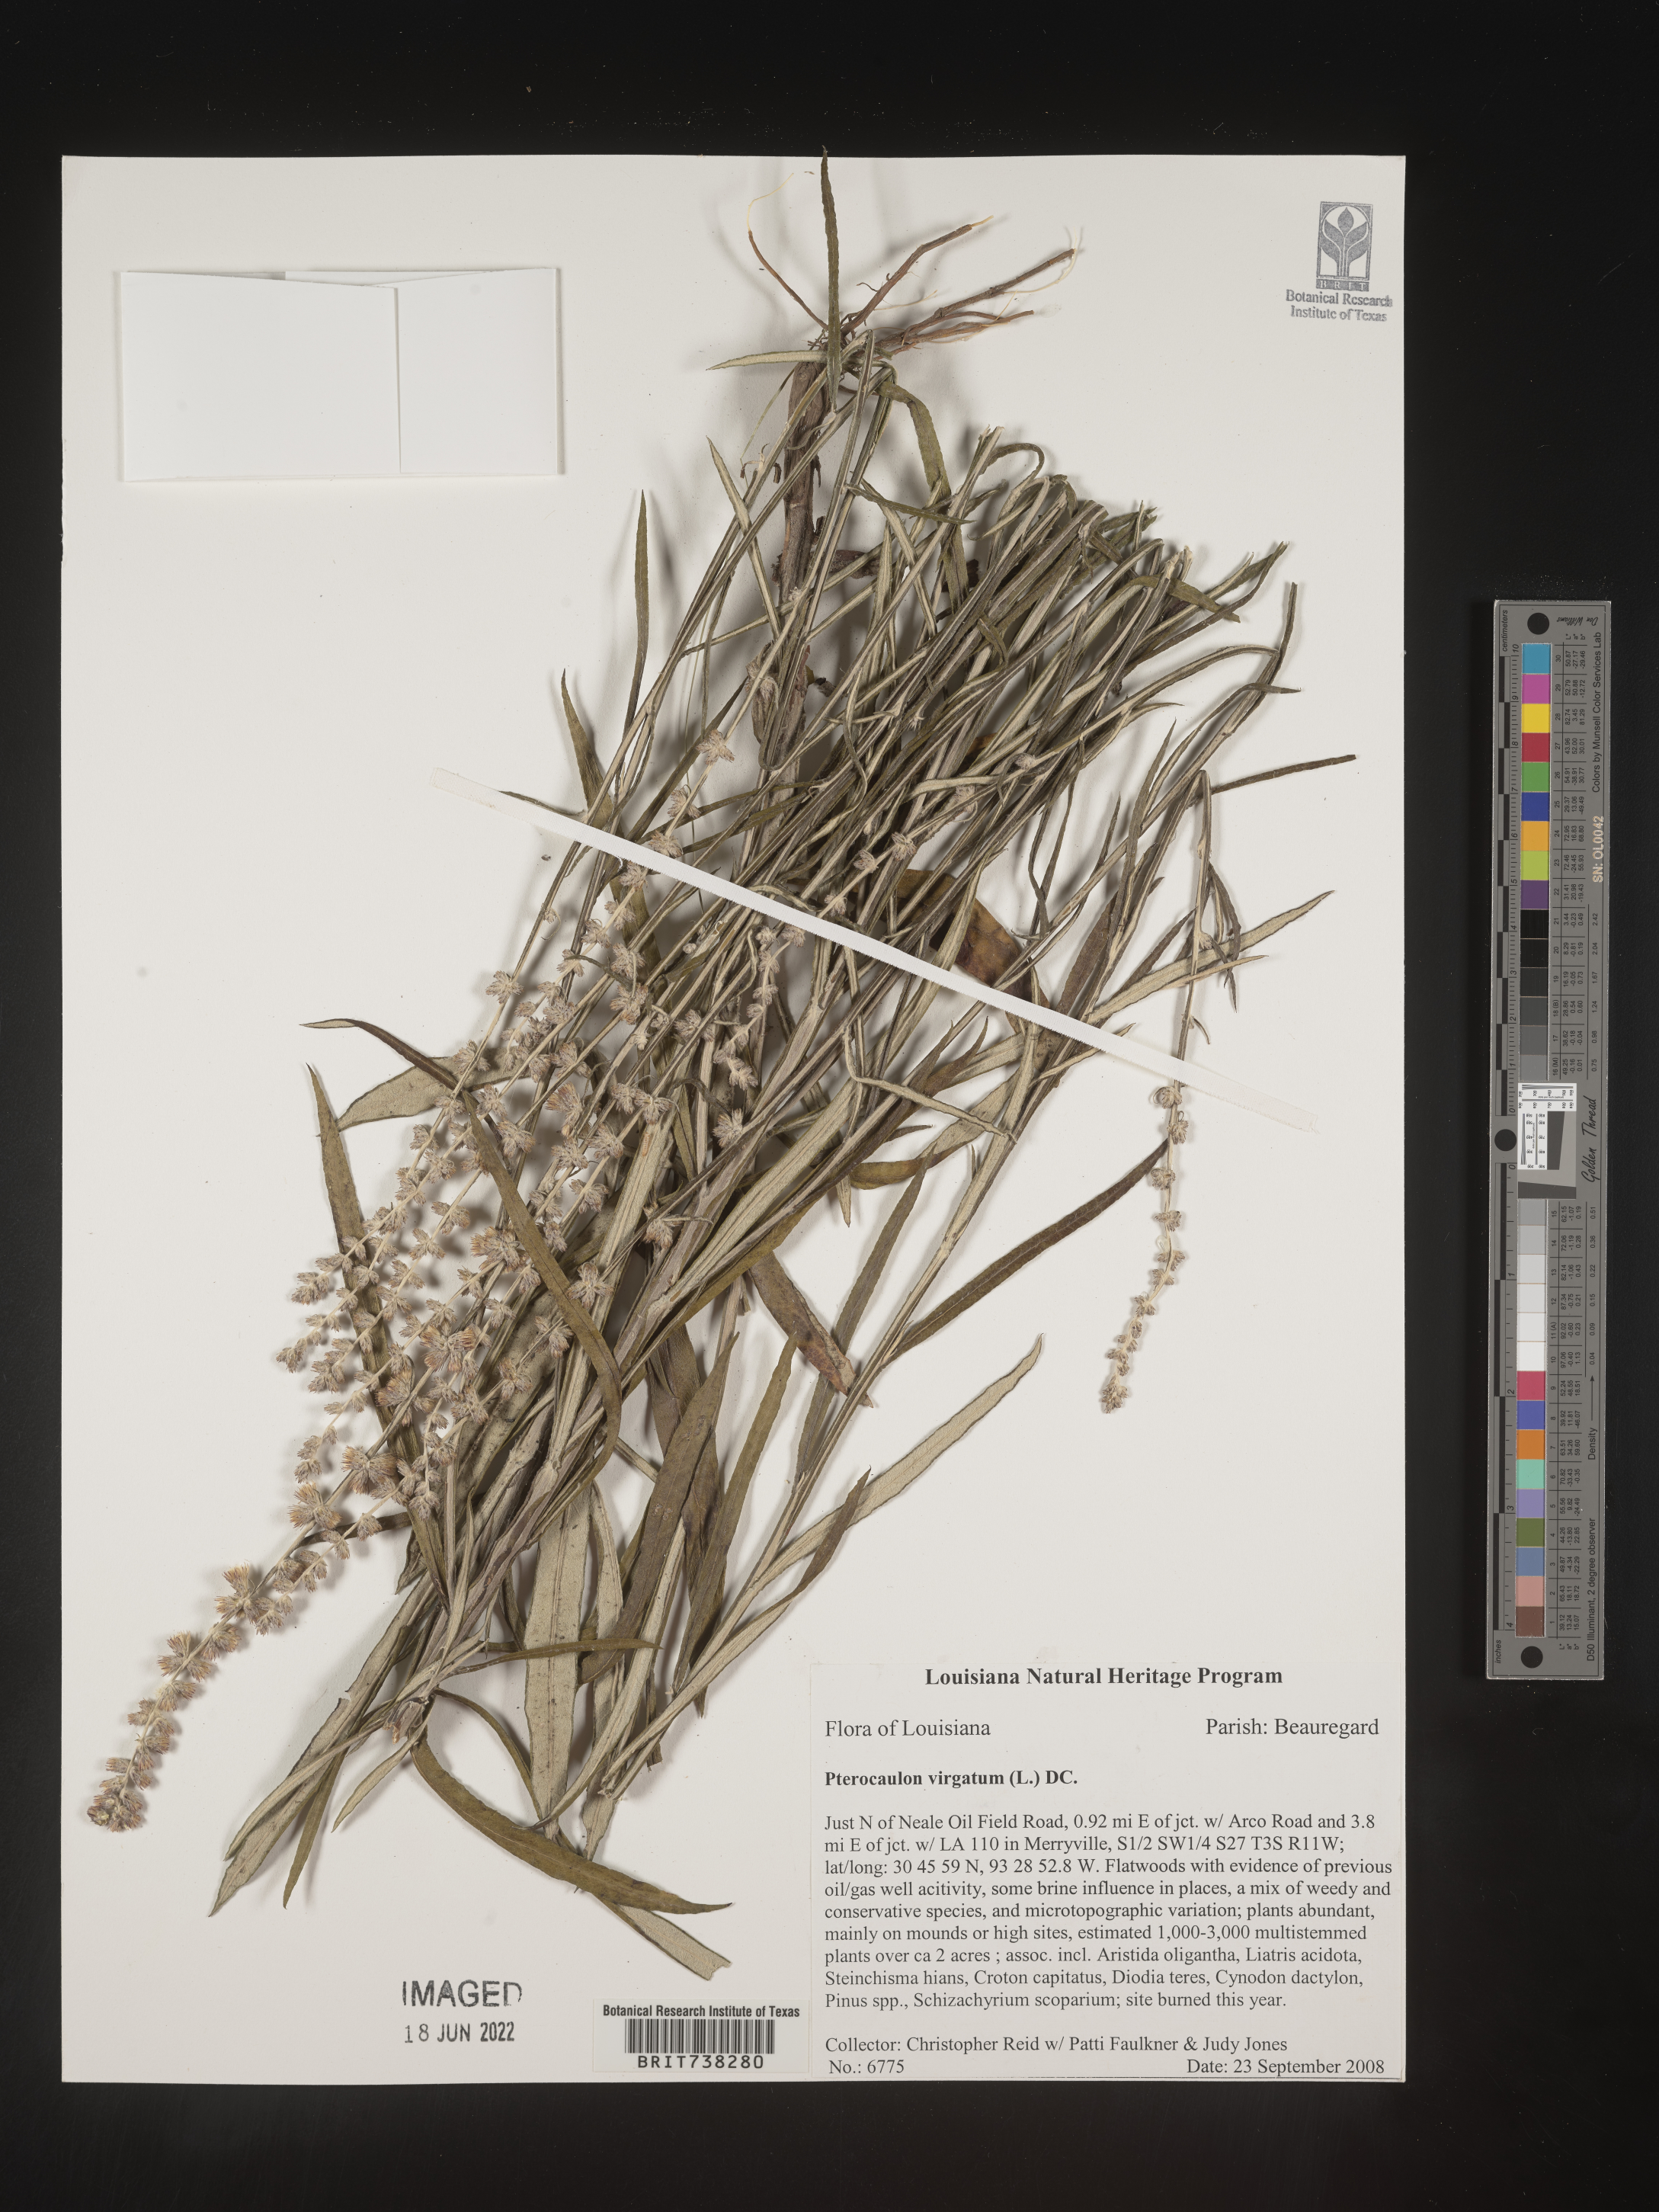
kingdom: Plantae
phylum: Tracheophyta
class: Magnoliopsida
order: Asterales
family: Asteraceae
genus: Pterocaulon
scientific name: Pterocaulon virgatum
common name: Wand blackroot
